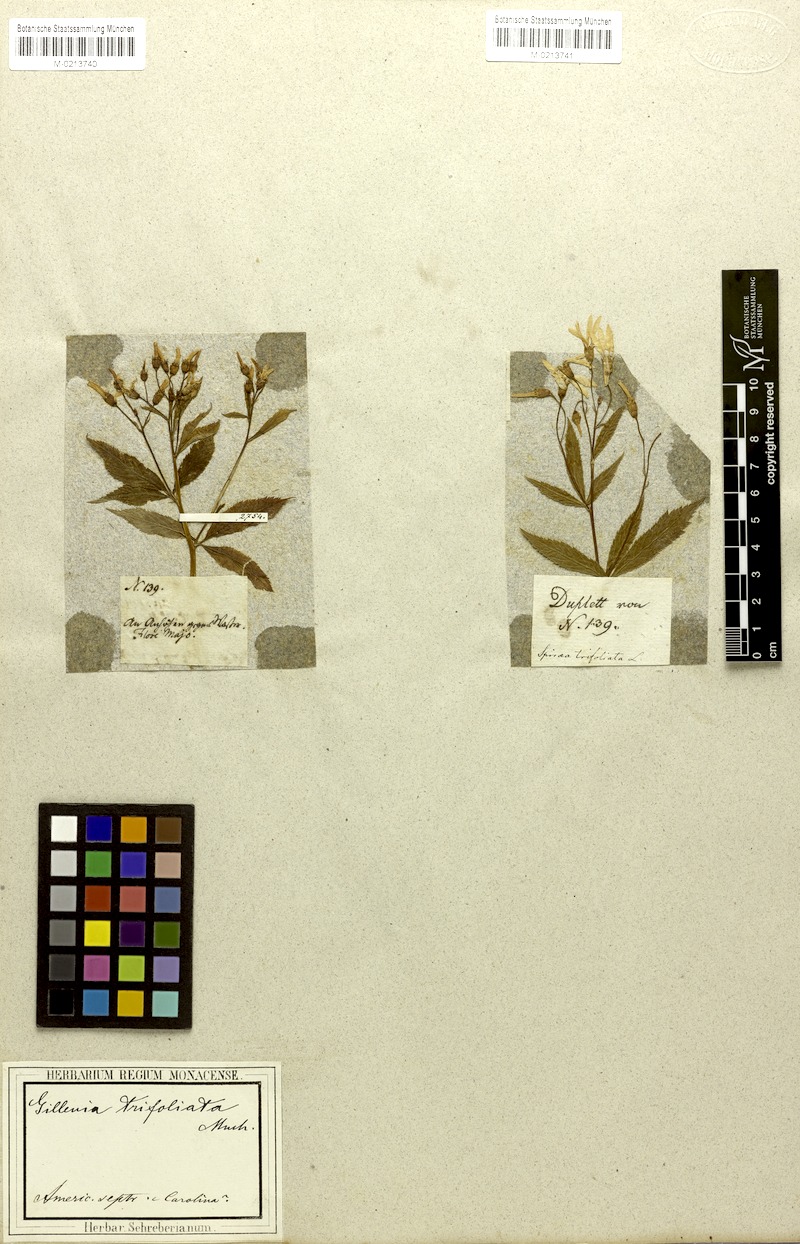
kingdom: Plantae
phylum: Tracheophyta
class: Magnoliopsida
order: Rosales
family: Rosaceae
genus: Gillenia
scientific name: Gillenia trifoliata
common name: Bowman's-root
